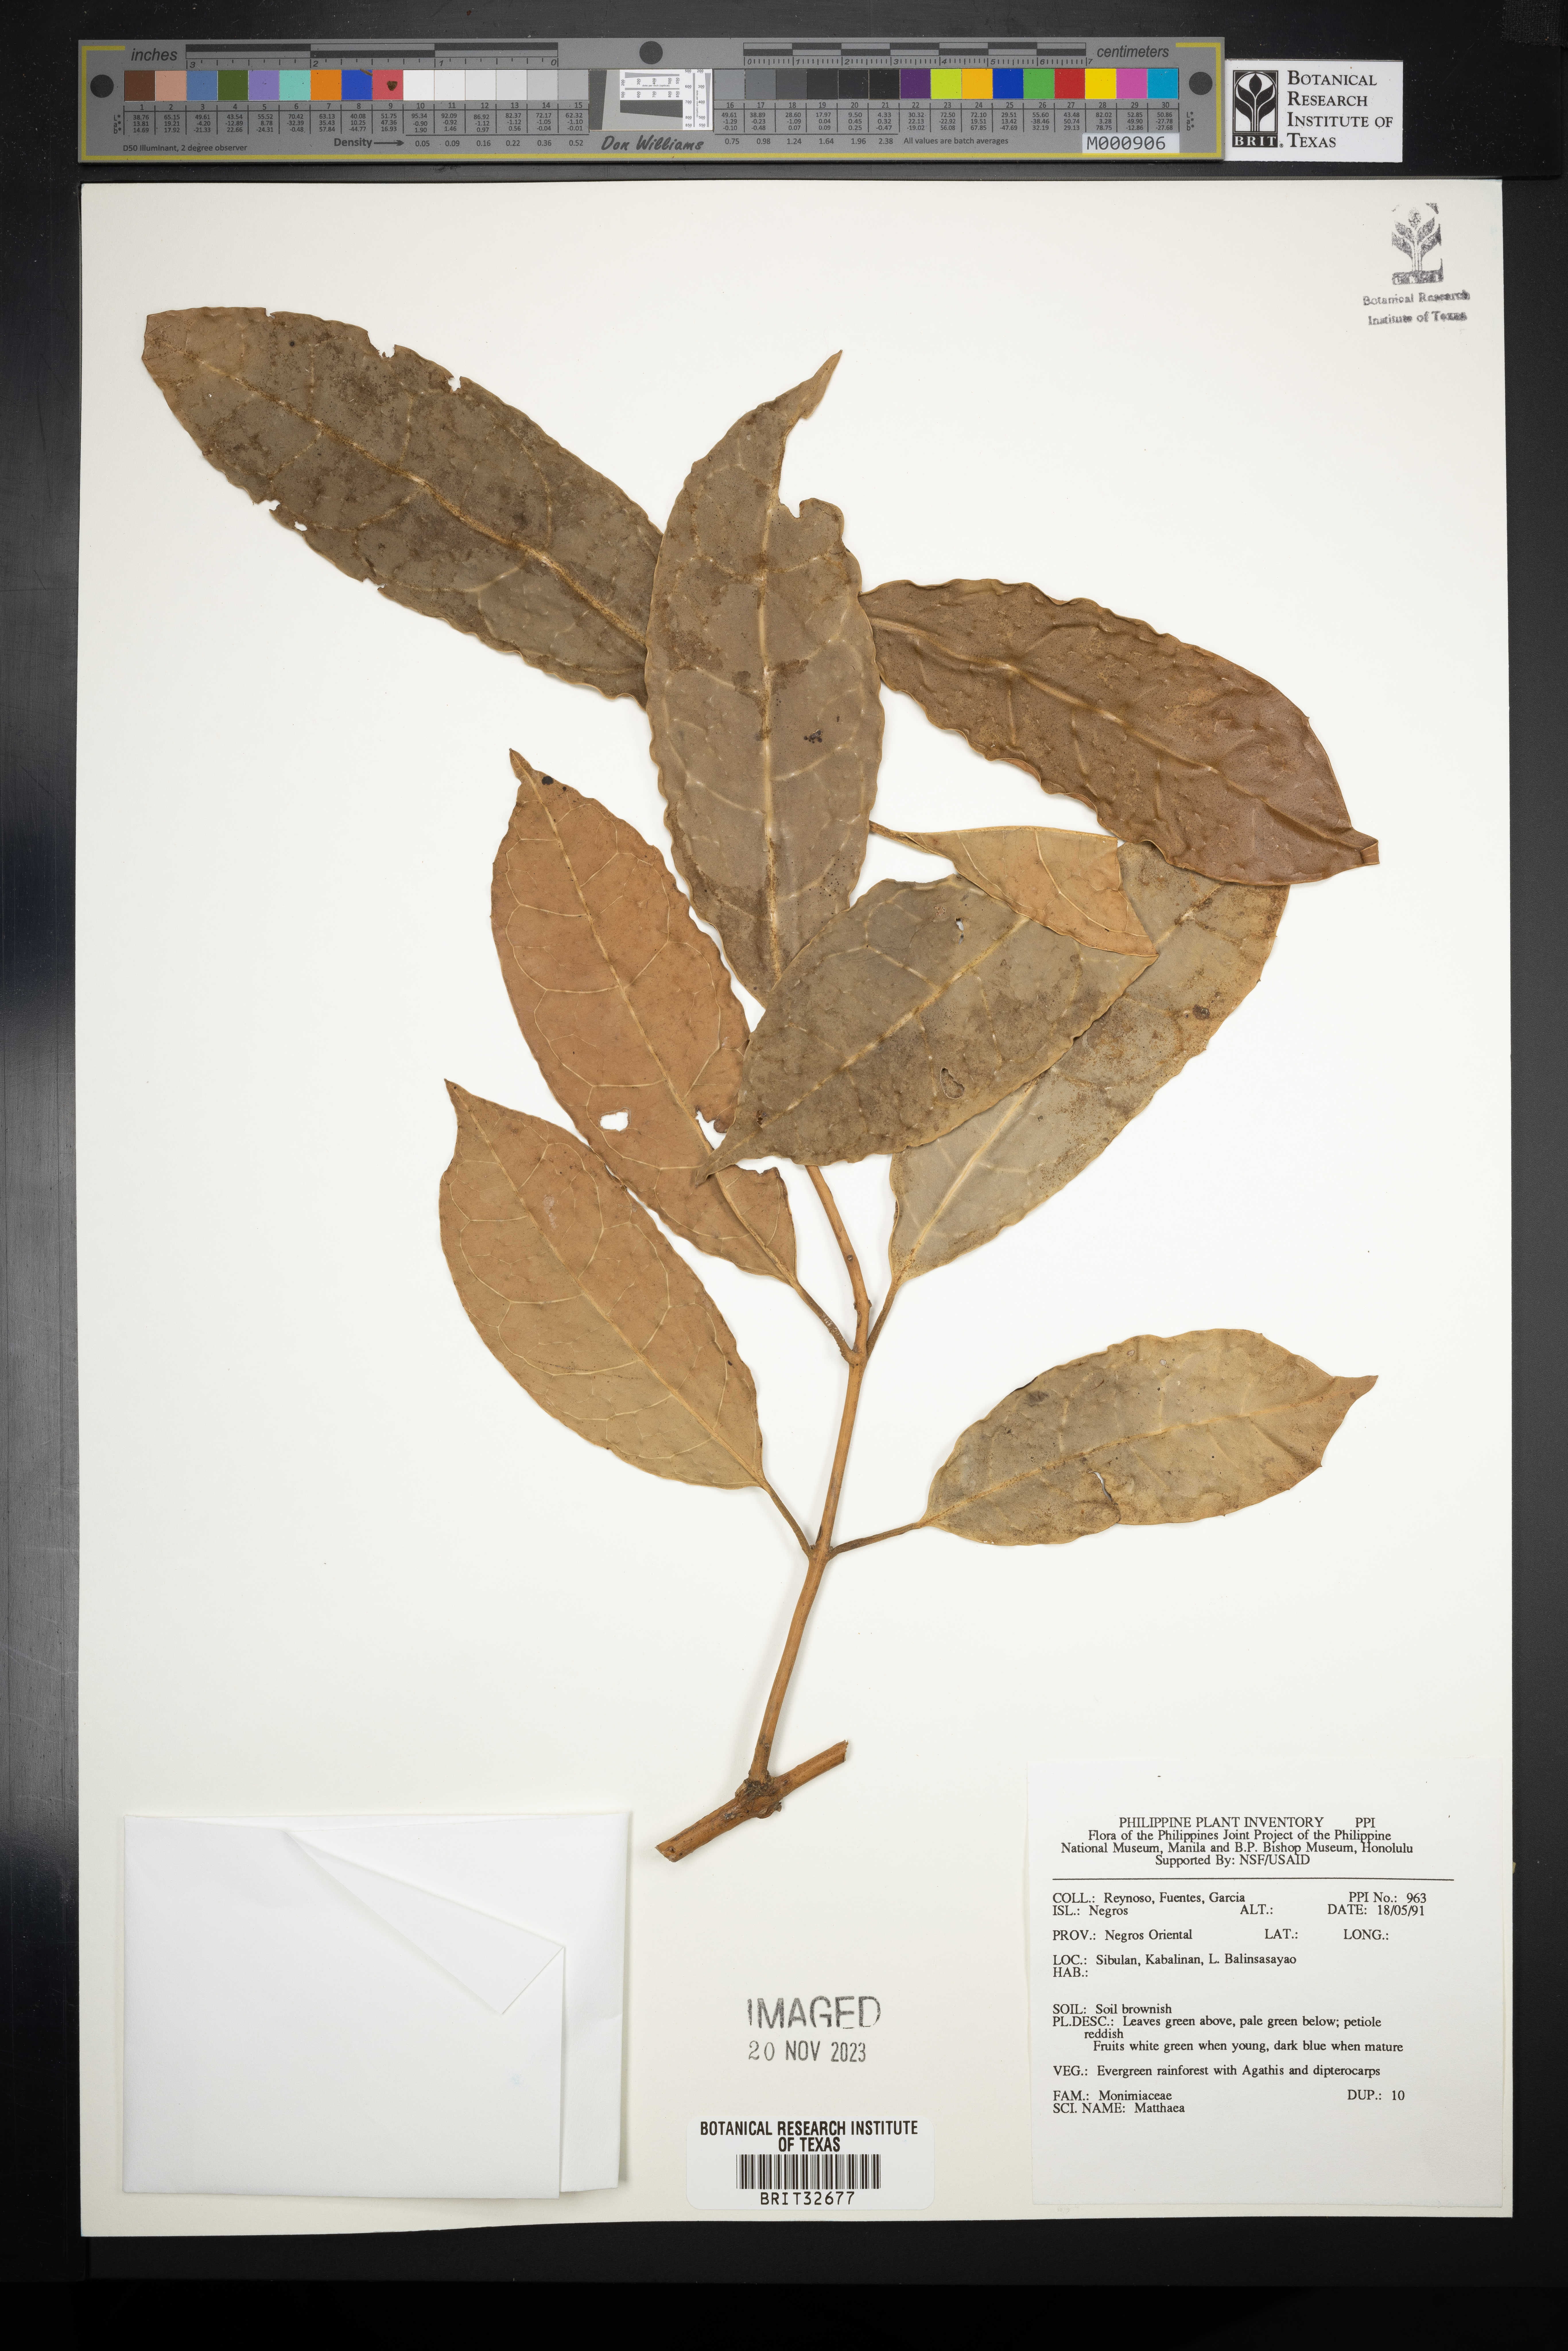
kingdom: Plantae
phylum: Tracheophyta
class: Magnoliopsida
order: Laurales
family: Monimiaceae
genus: Matthaea
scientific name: Matthaea
